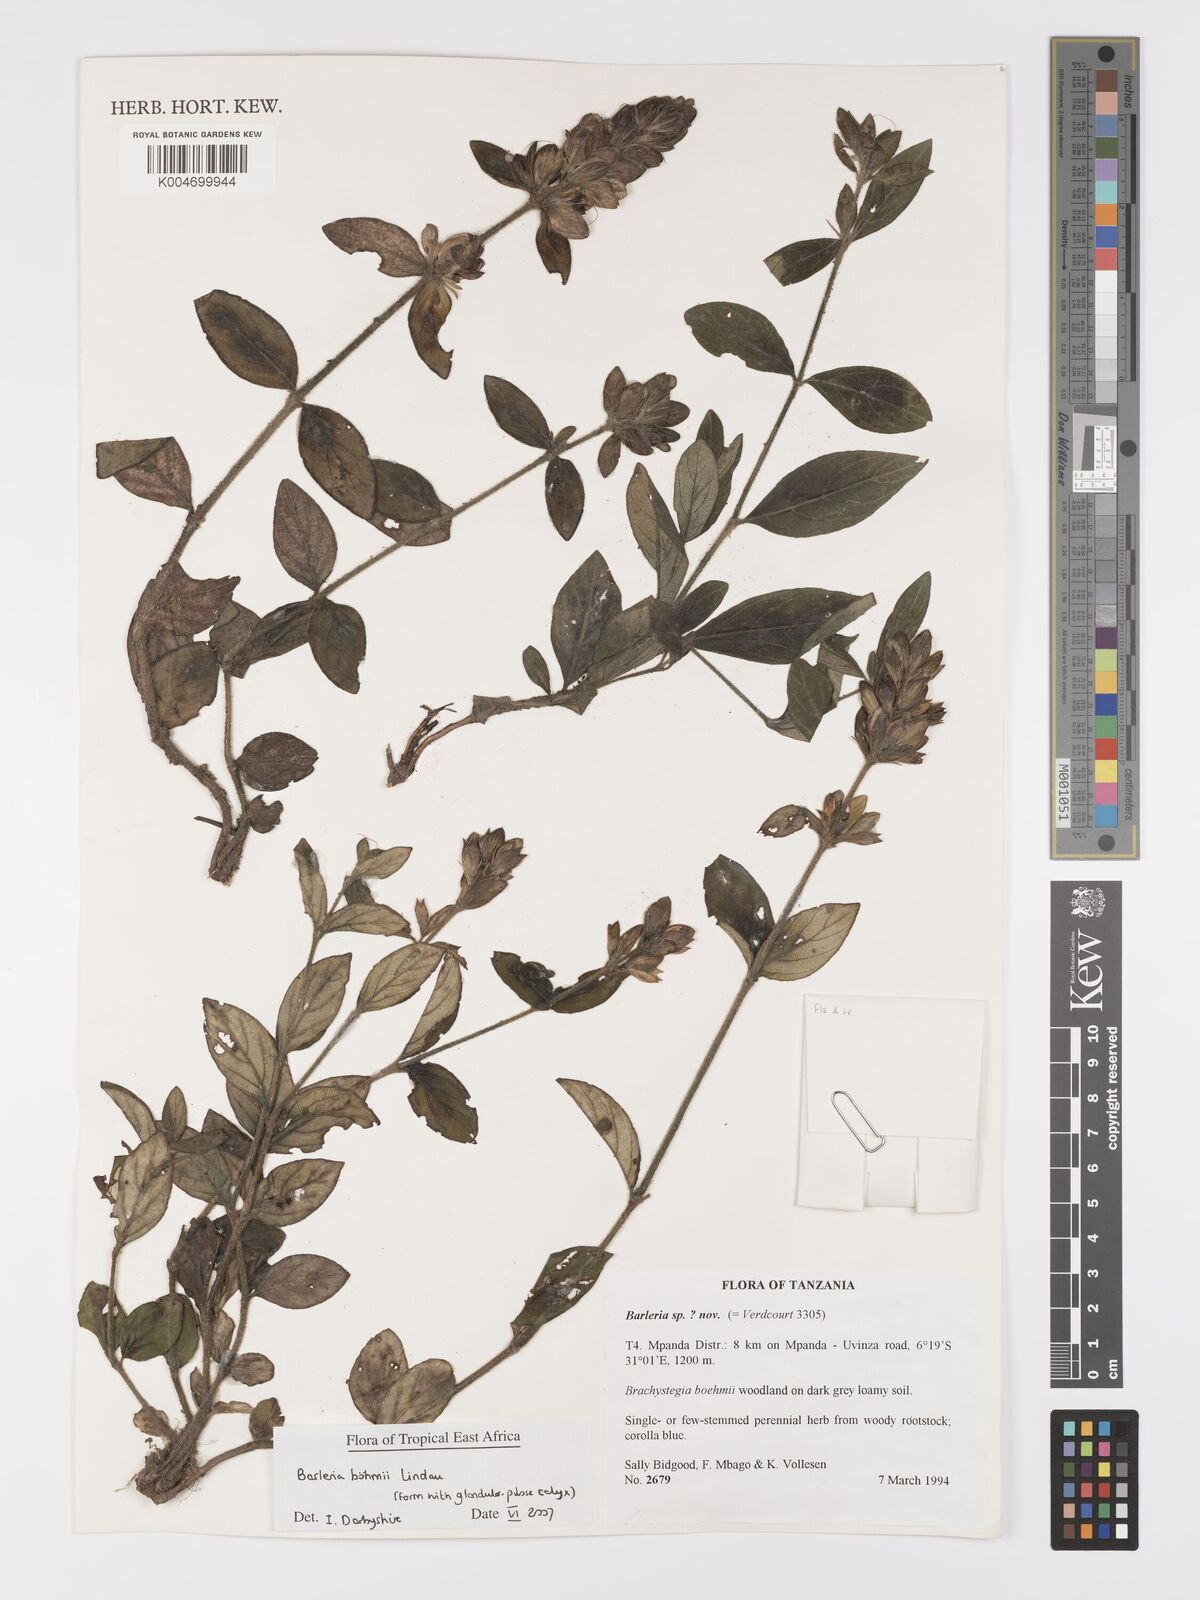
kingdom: Plantae
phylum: Tracheophyta
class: Magnoliopsida
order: Lamiales
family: Acanthaceae
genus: Barleria
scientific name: Barleria boehmii
